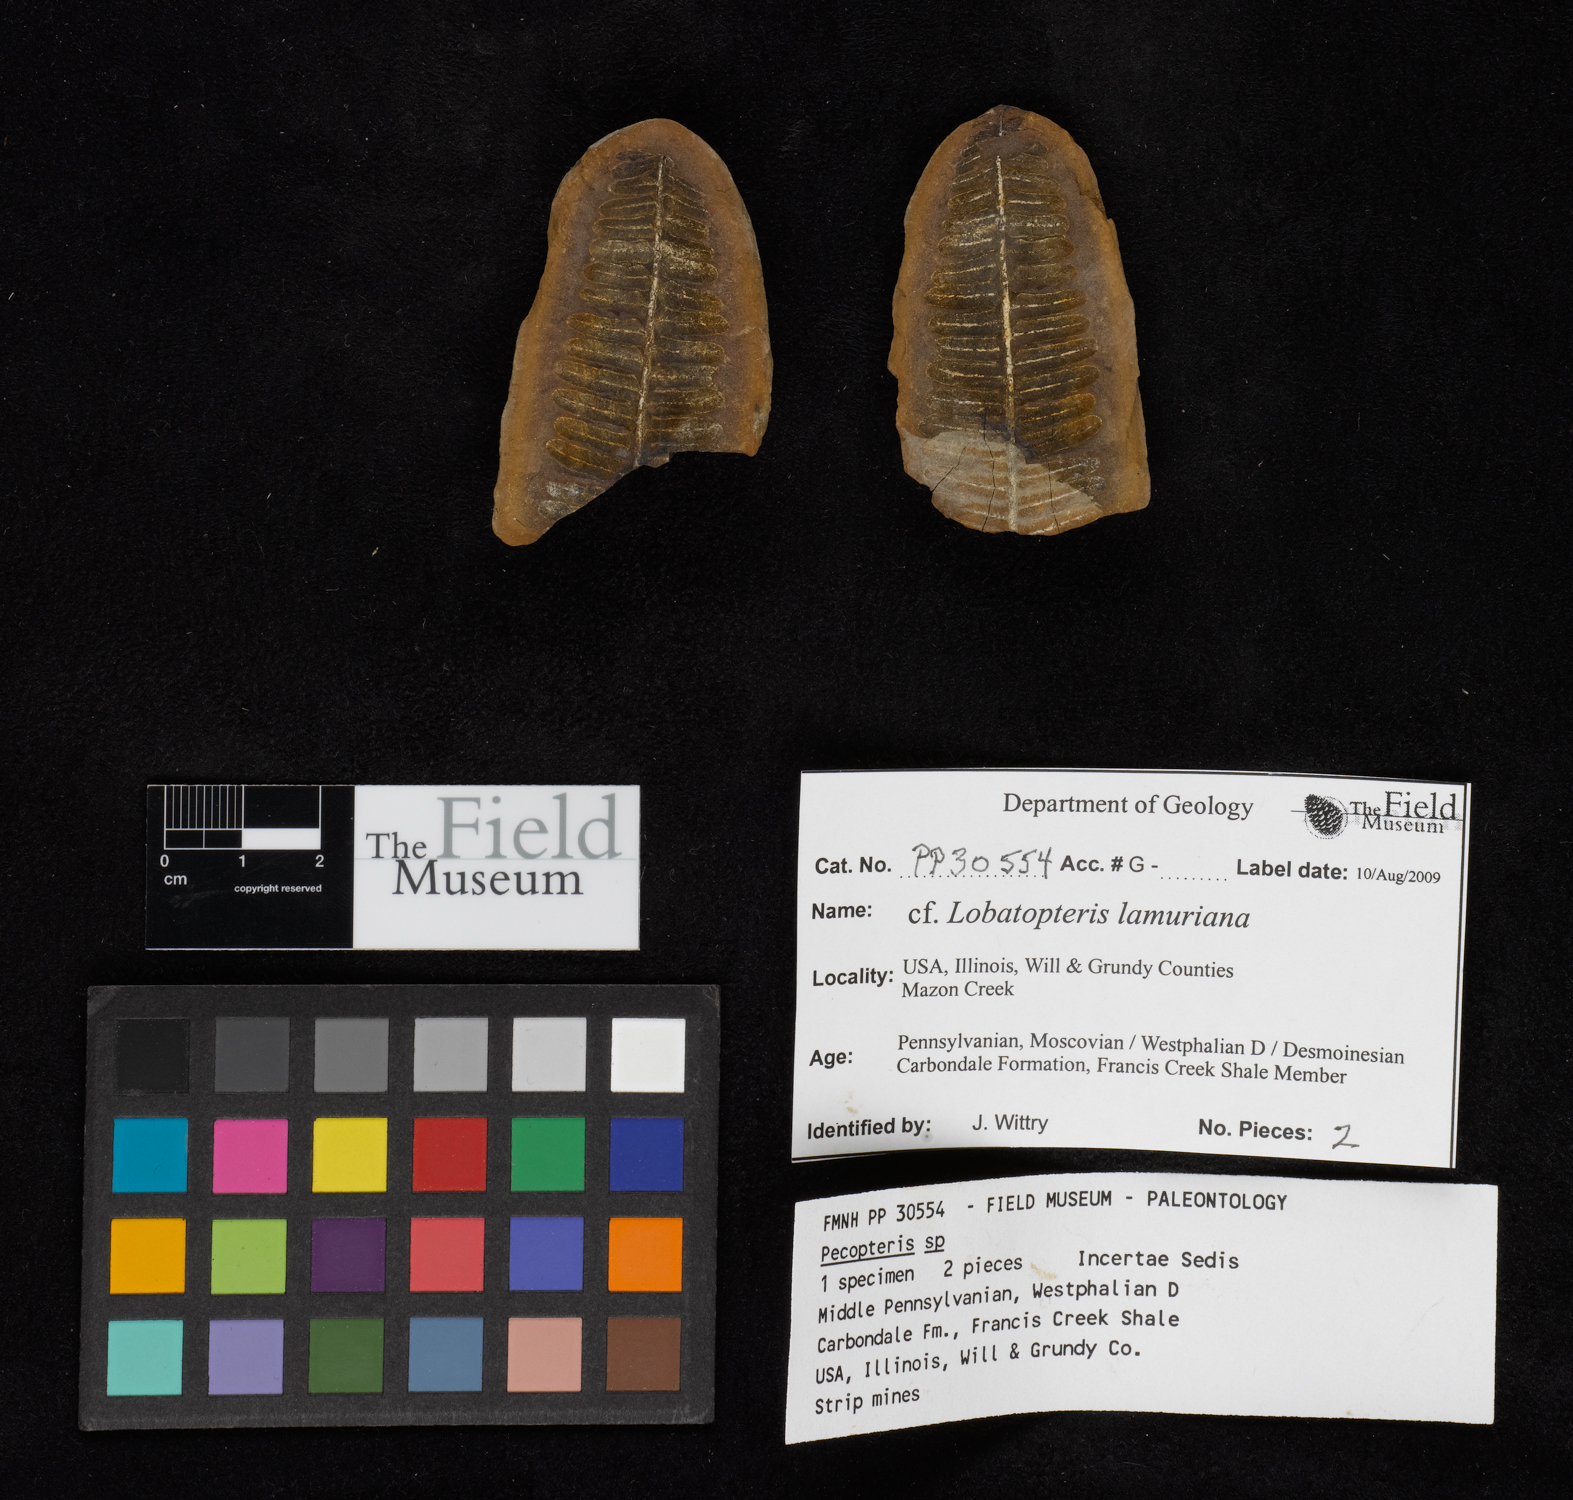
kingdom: Plantae
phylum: Tracheophyta
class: Polypodiopsida
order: Marattiales
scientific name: Marattiales
